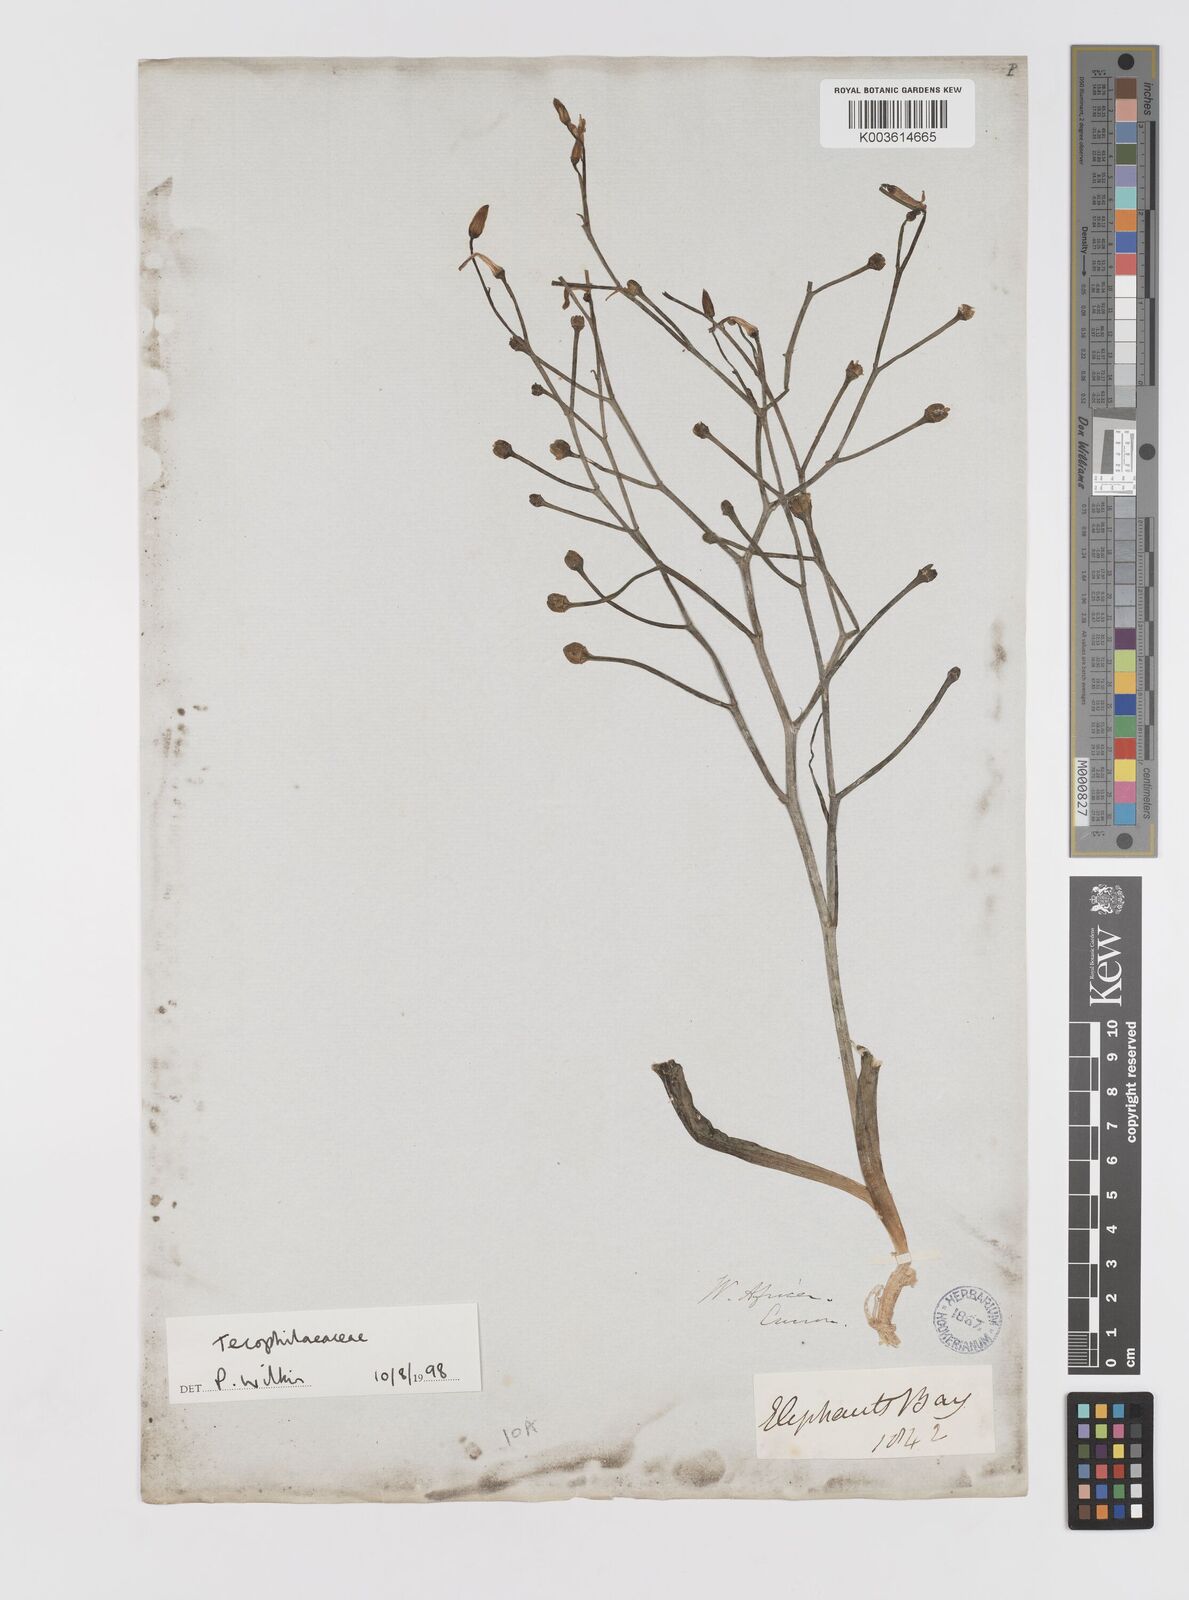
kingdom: Plantae
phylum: Tracheophyta
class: Liliopsida
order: Asparagales
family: Tecophilaeaceae
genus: Eremiolirion
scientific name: Eremiolirion amboense
